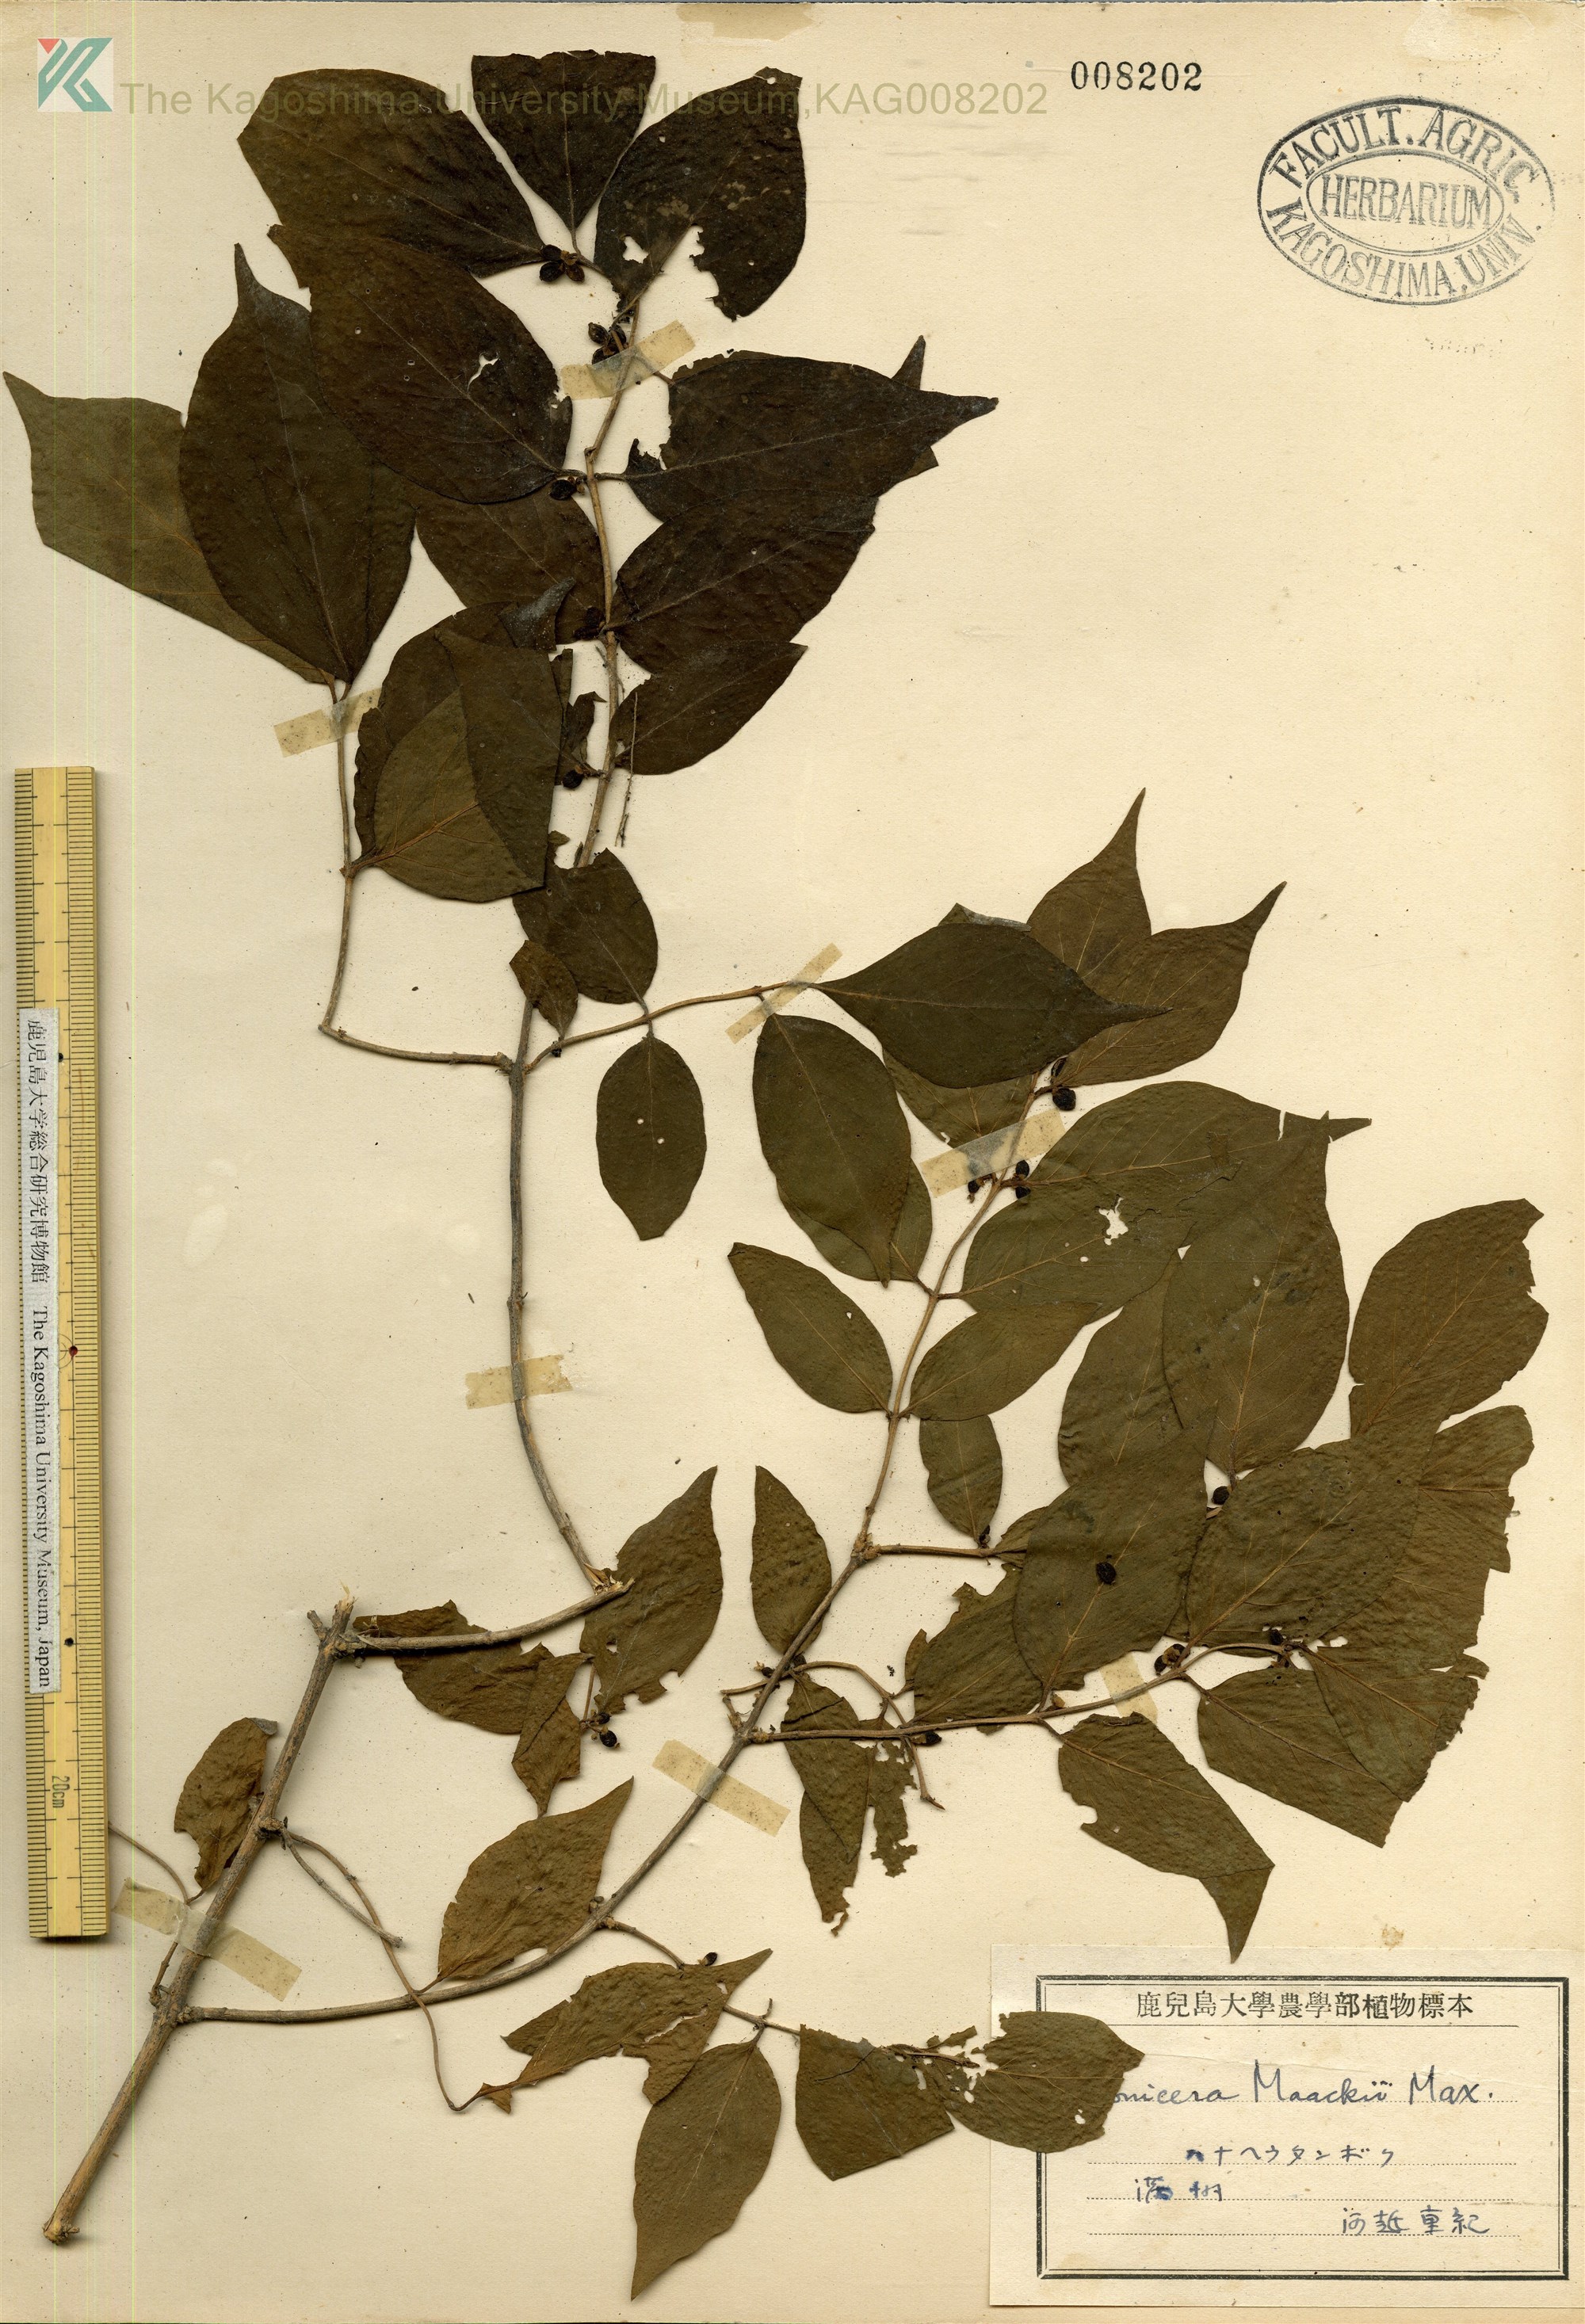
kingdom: Plantae
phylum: Tracheophyta
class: Magnoliopsida
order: Dipsacales
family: Caprifoliaceae
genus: Lonicera
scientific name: Lonicera maackii
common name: Amur honeysuckle
